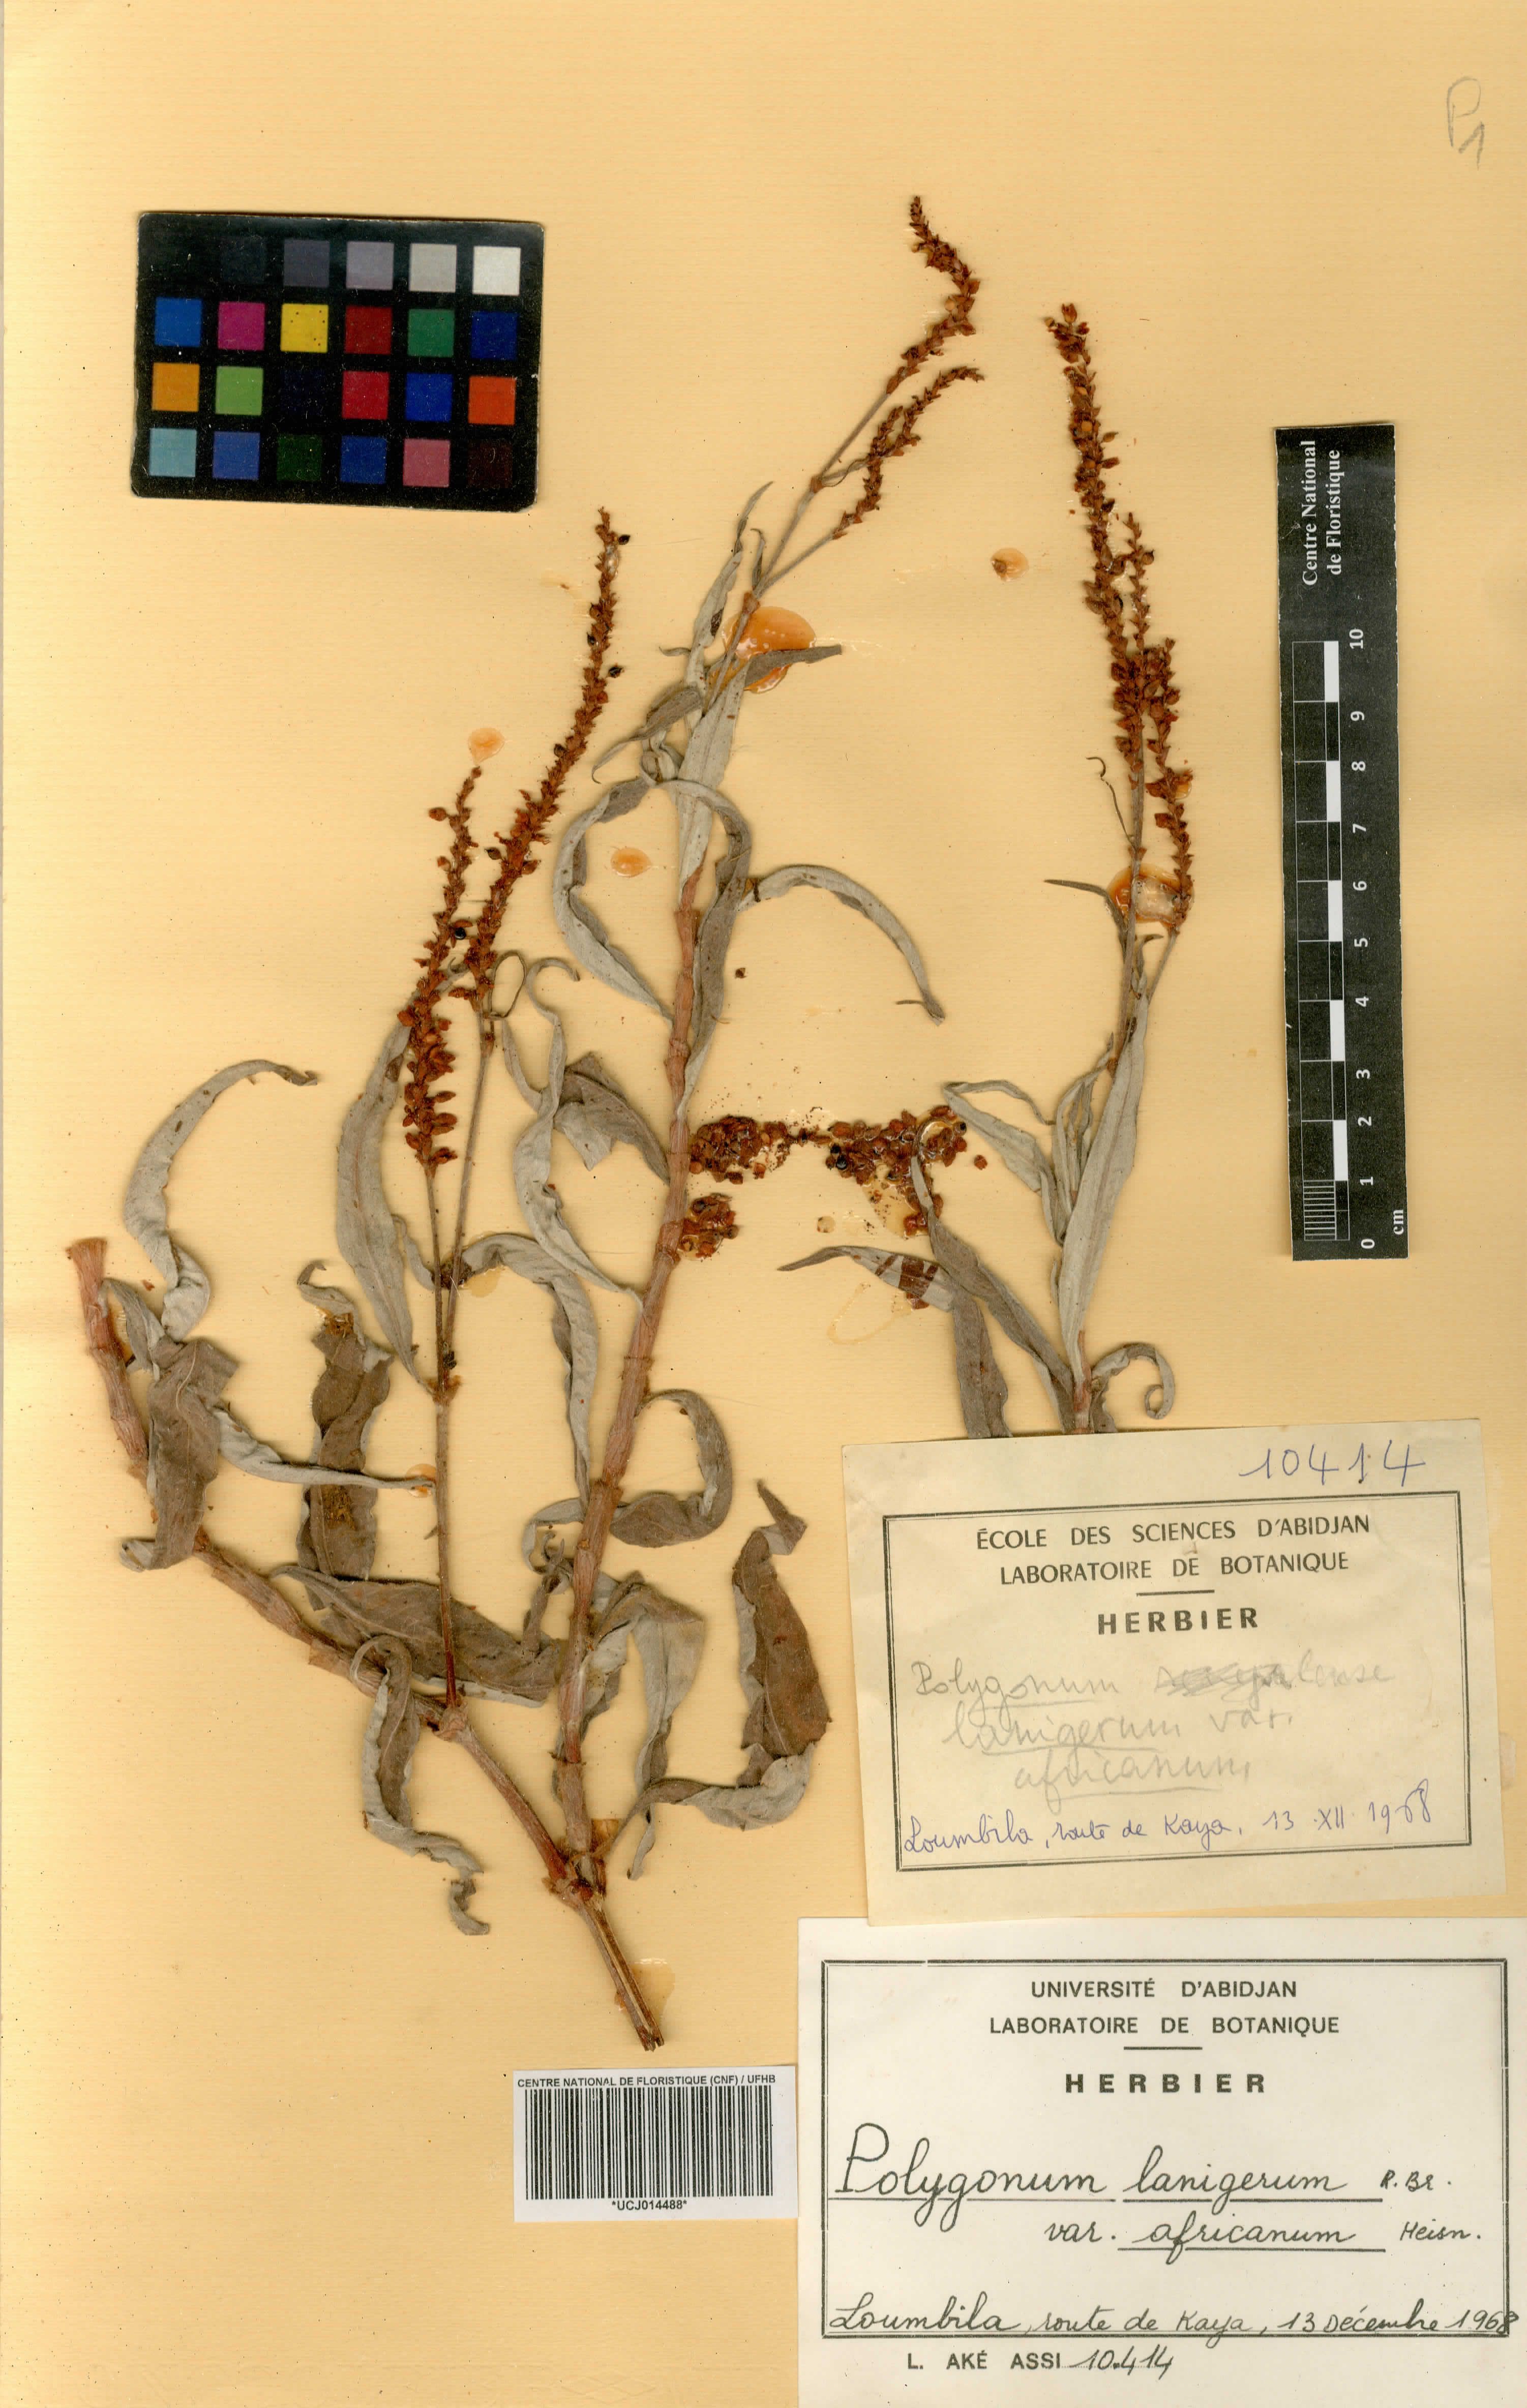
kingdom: Plantae
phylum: Tracheophyta
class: Magnoliopsida
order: Caryophyllales
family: Polygonaceae
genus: Persicaria
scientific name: Persicaria senegalensis
